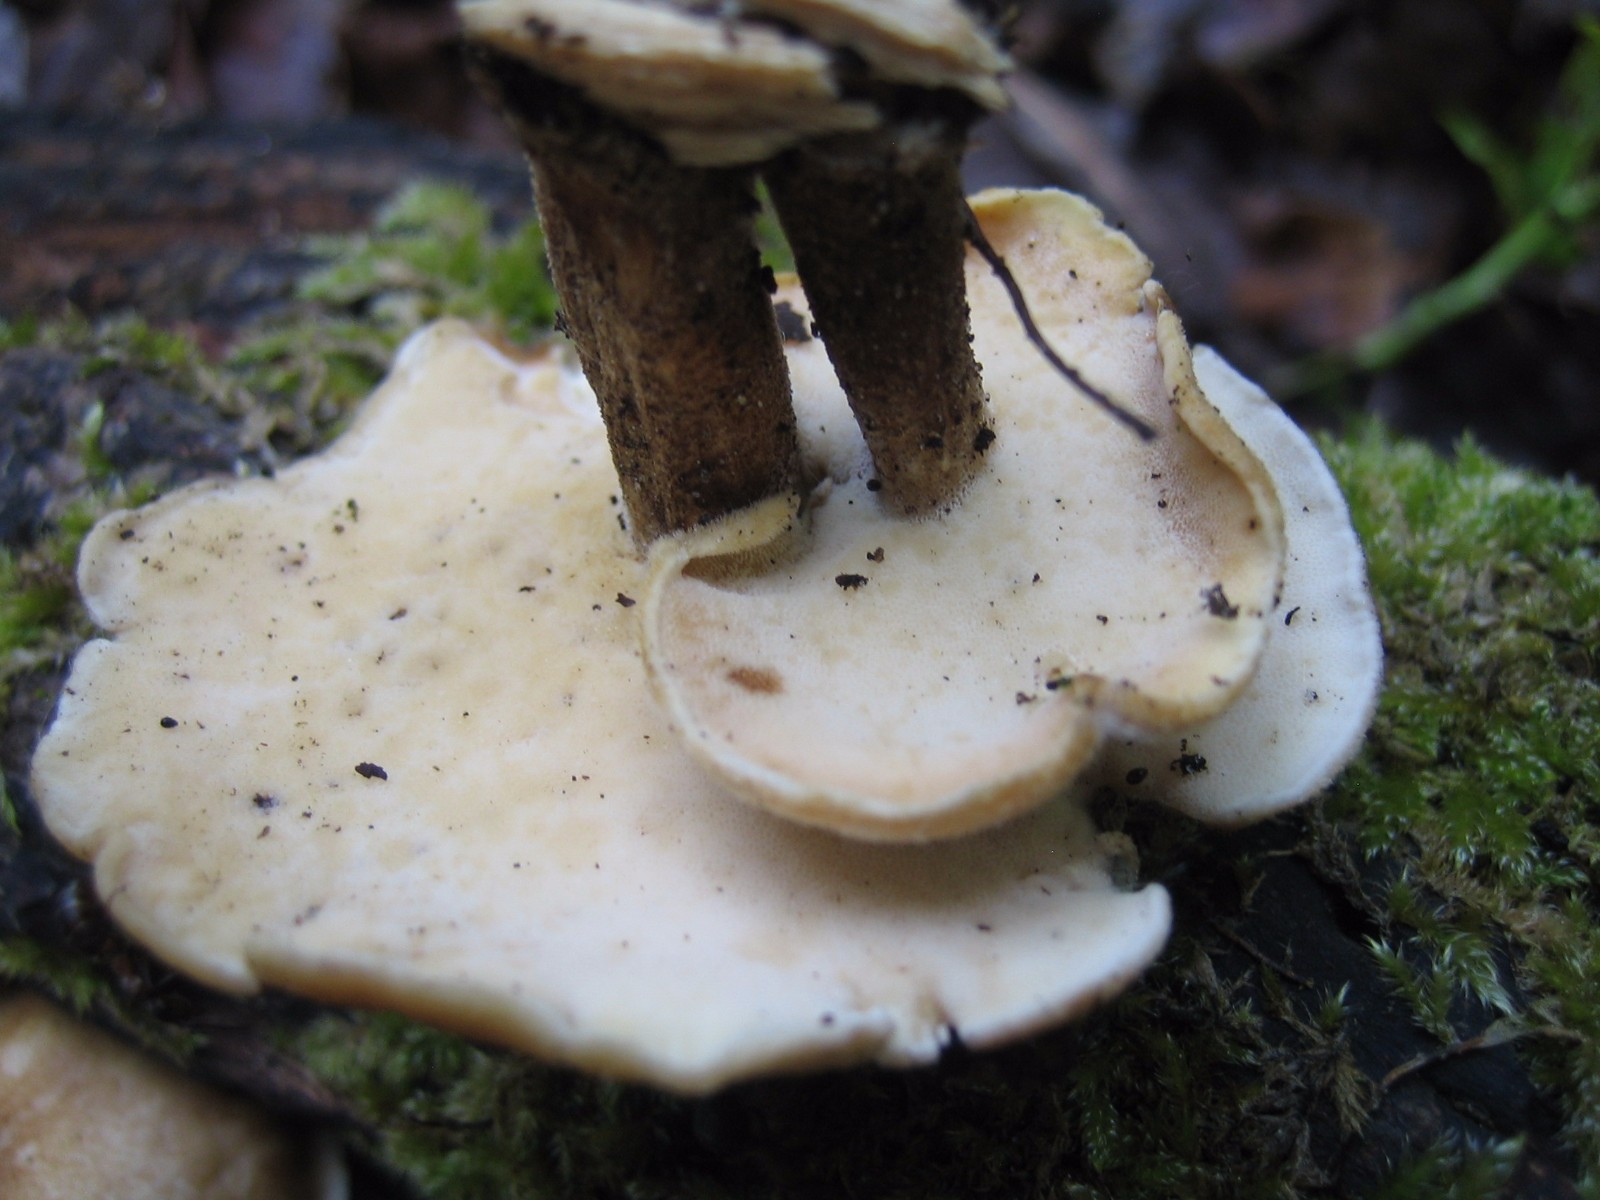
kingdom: Fungi
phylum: Basidiomycota
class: Agaricomycetes
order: Polyporales
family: Polyporaceae
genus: Lentinus
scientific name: Lentinus substrictus
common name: forårs-stilkporesvamp
